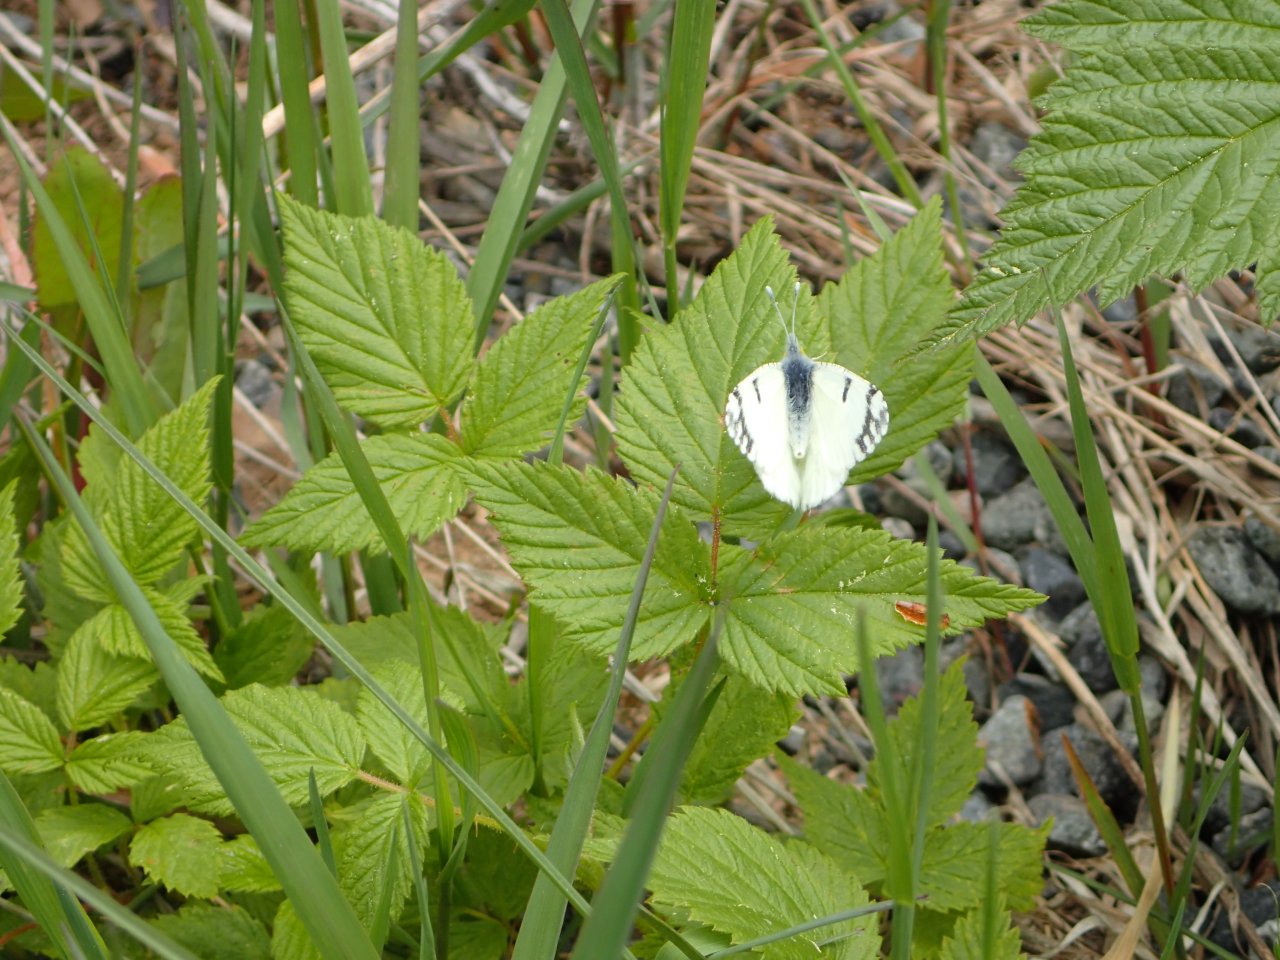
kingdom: Animalia
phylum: Arthropoda
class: Insecta
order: Lepidoptera
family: Pieridae
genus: Euchloe
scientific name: Euchloe ausonides
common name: Large Marble
